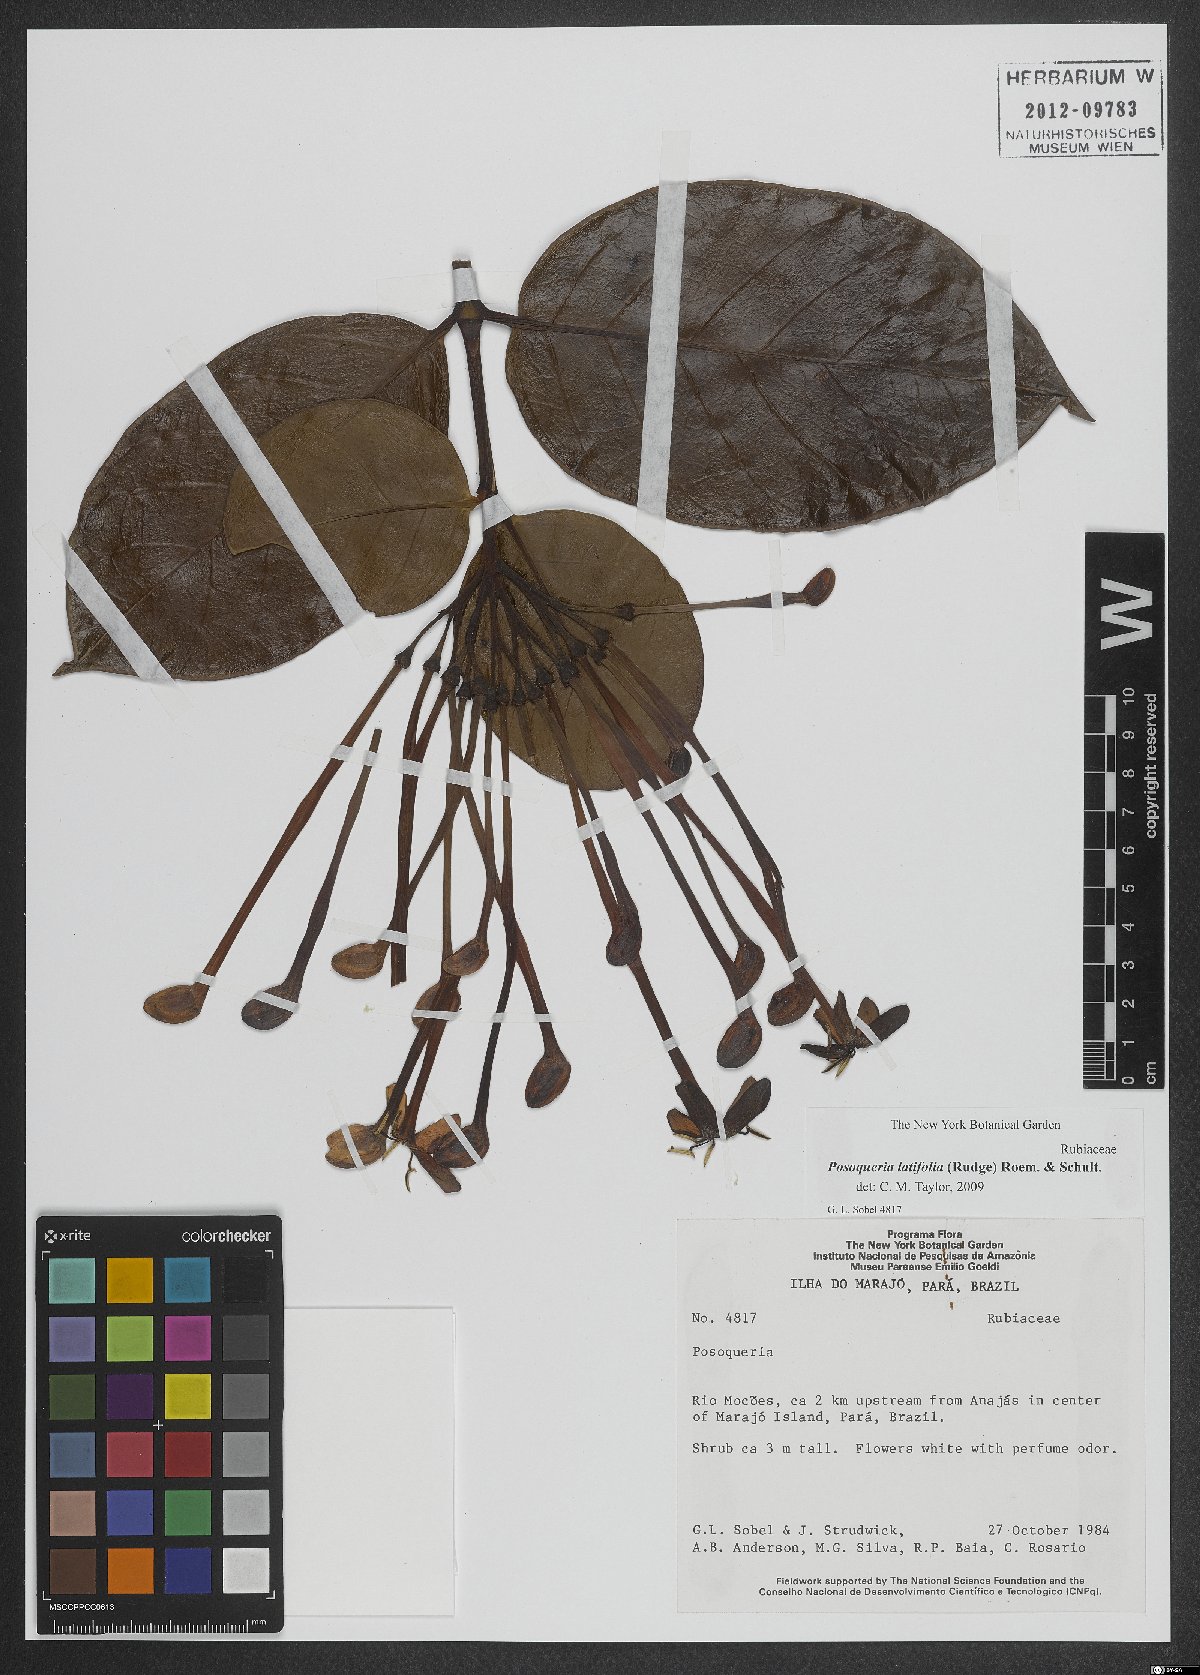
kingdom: Plantae
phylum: Tracheophyta
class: Magnoliopsida
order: Gentianales
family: Rubiaceae
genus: Posoqueria
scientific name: Posoqueria latifolia
